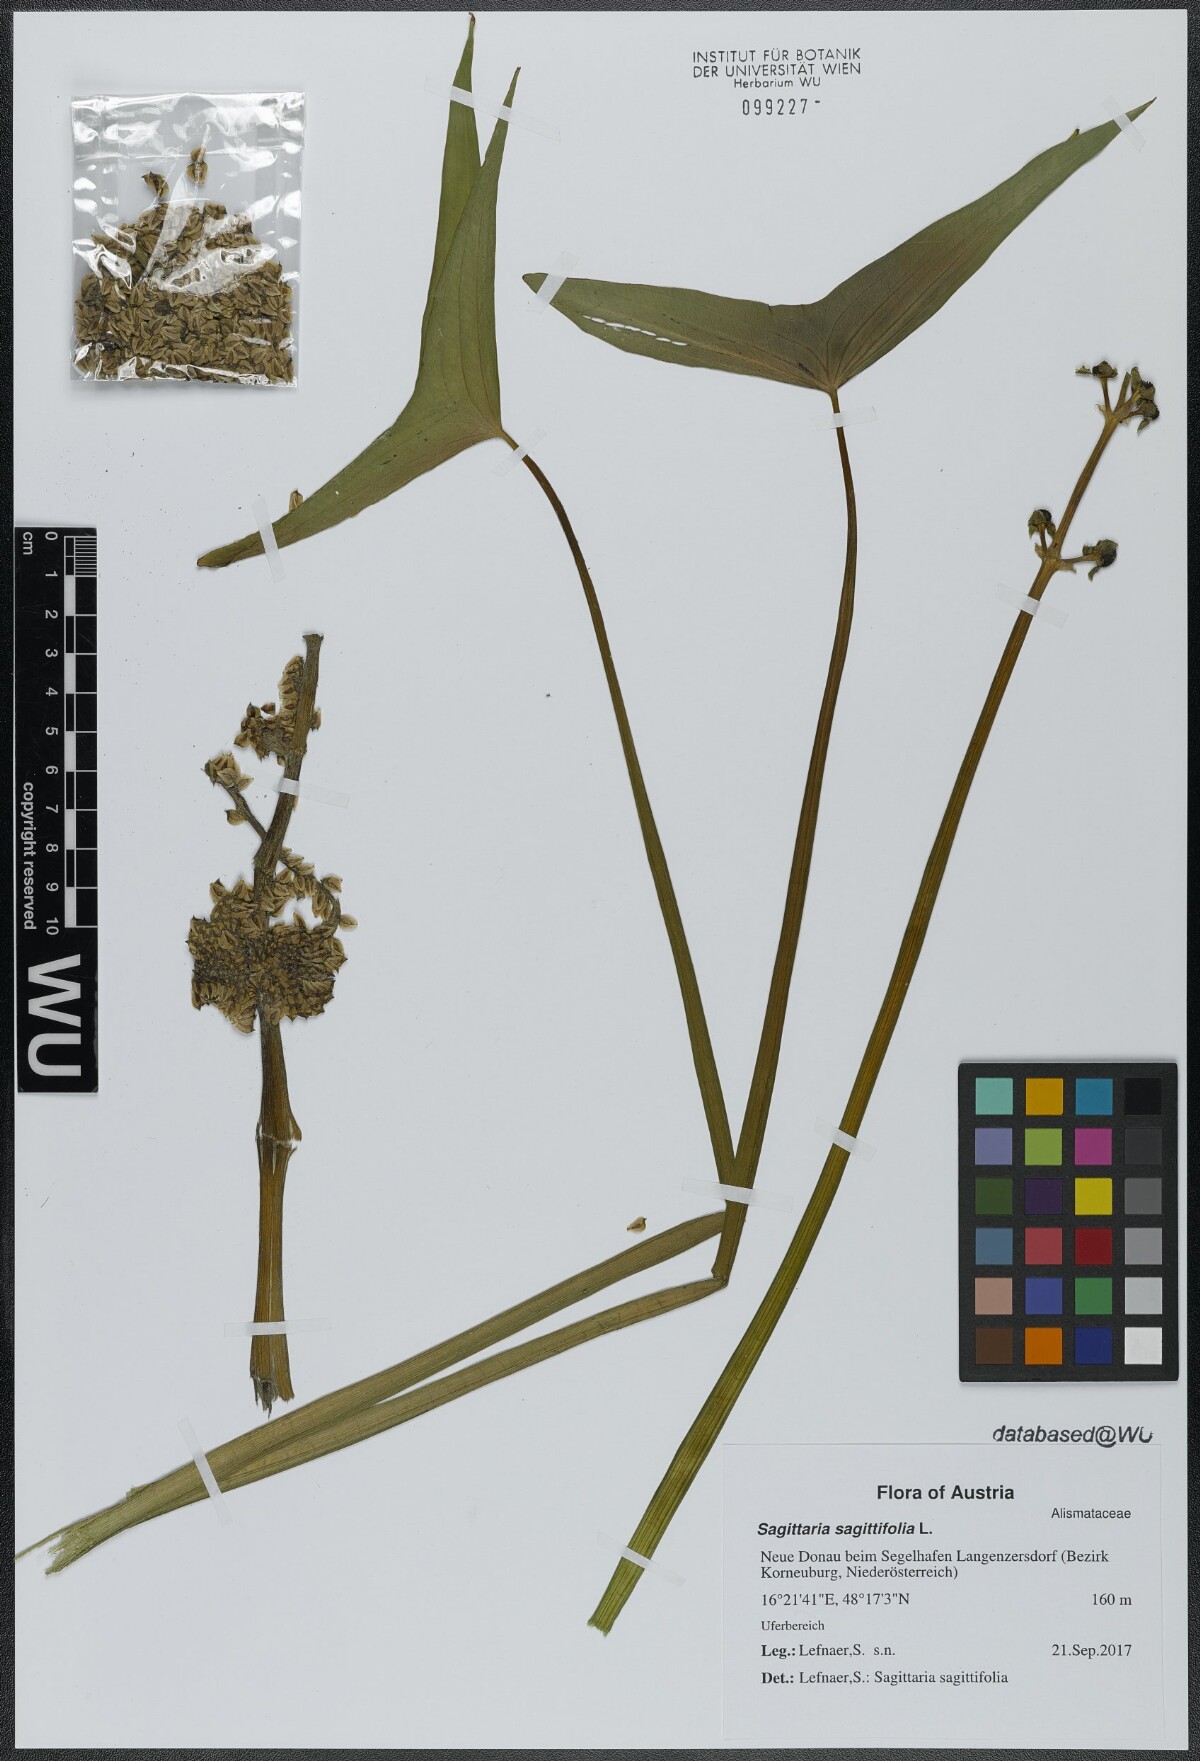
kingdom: Plantae
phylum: Tracheophyta
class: Liliopsida
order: Alismatales
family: Alismataceae
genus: Sagittaria
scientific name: Sagittaria sagittifolia
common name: Arrowhead
